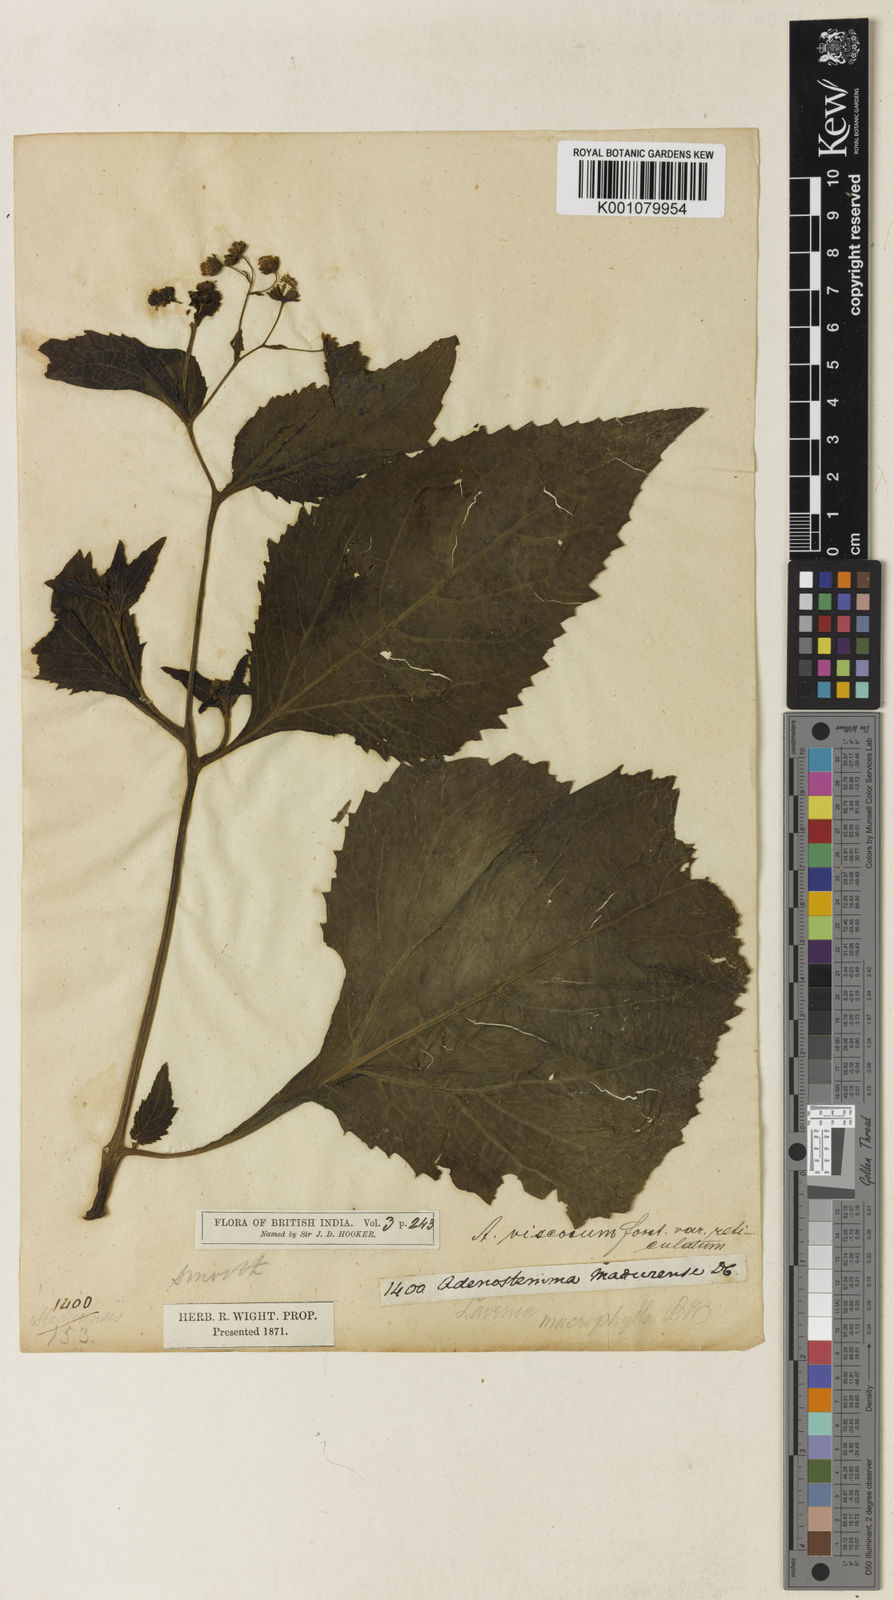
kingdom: Plantae
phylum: Tracheophyta
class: Magnoliopsida
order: Asterales
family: Asteraceae
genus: Adenostemma
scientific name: Adenostemma viscosum
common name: Dungweed
